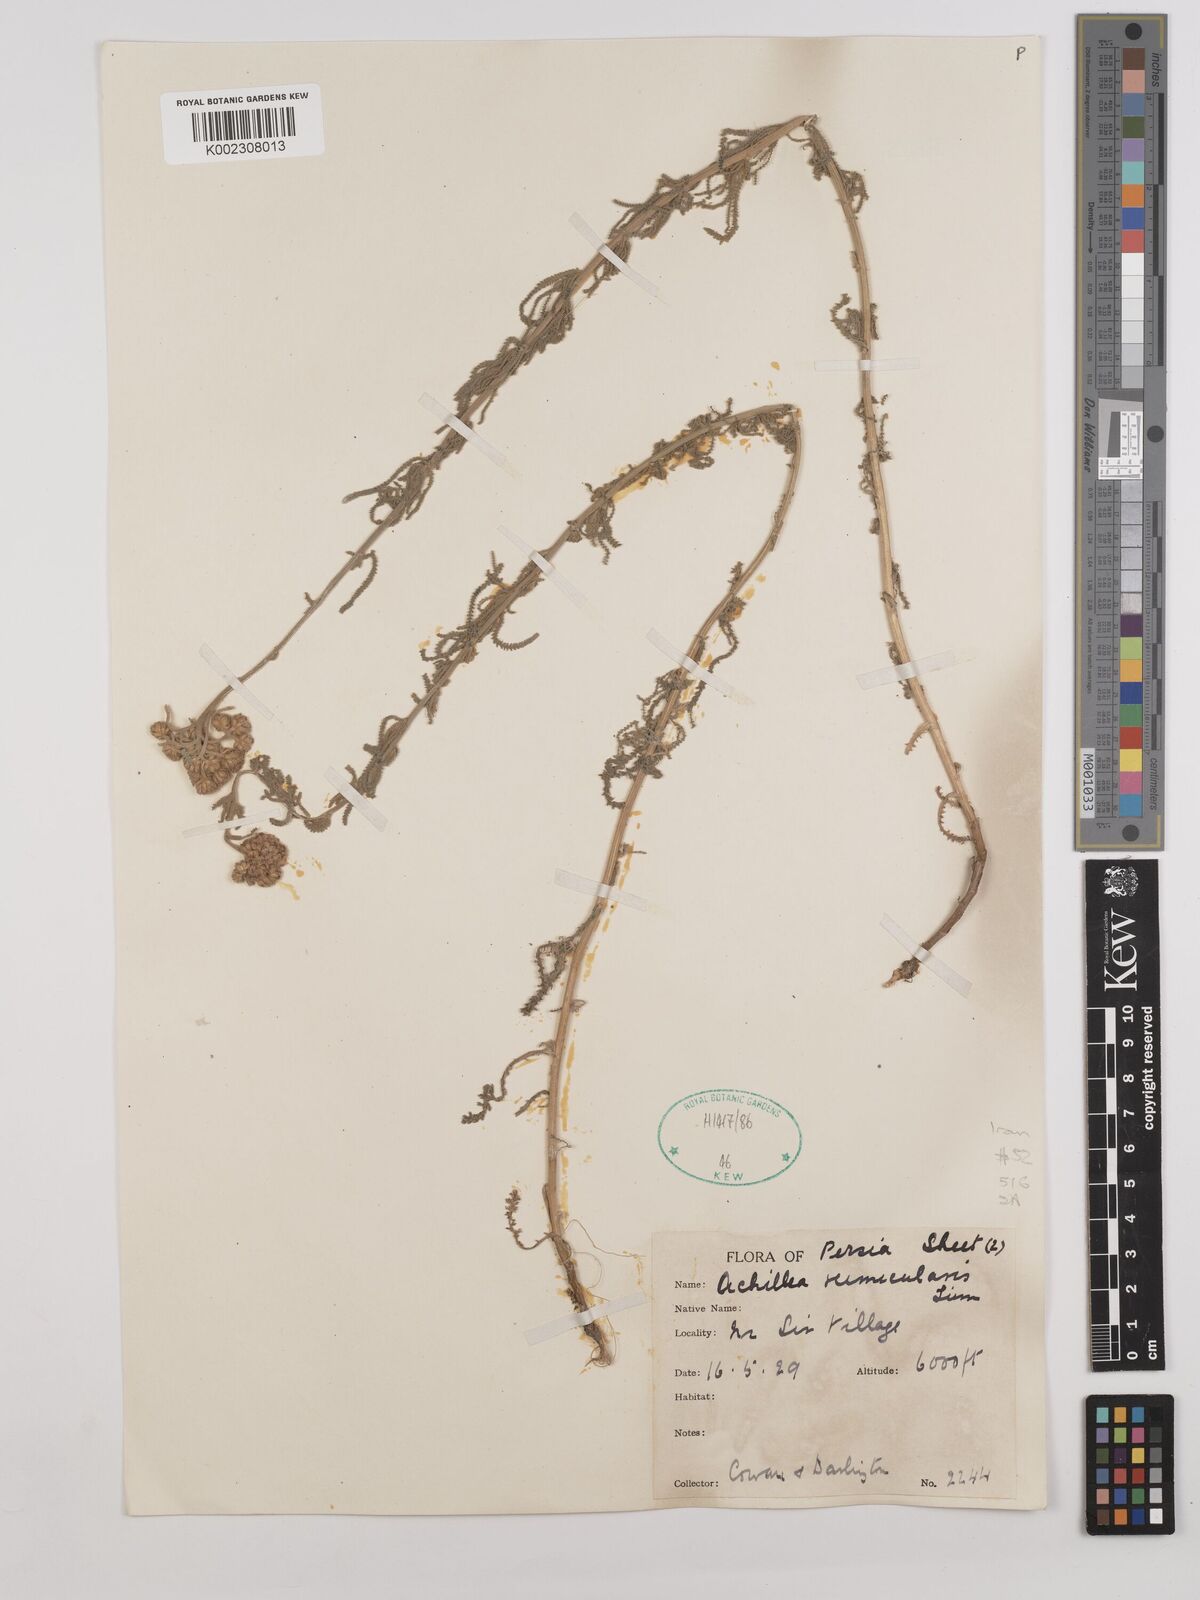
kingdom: Plantae
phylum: Tracheophyta
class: Magnoliopsida
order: Asterales
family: Asteraceae
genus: Achillea
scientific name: Achillea vermicularis
